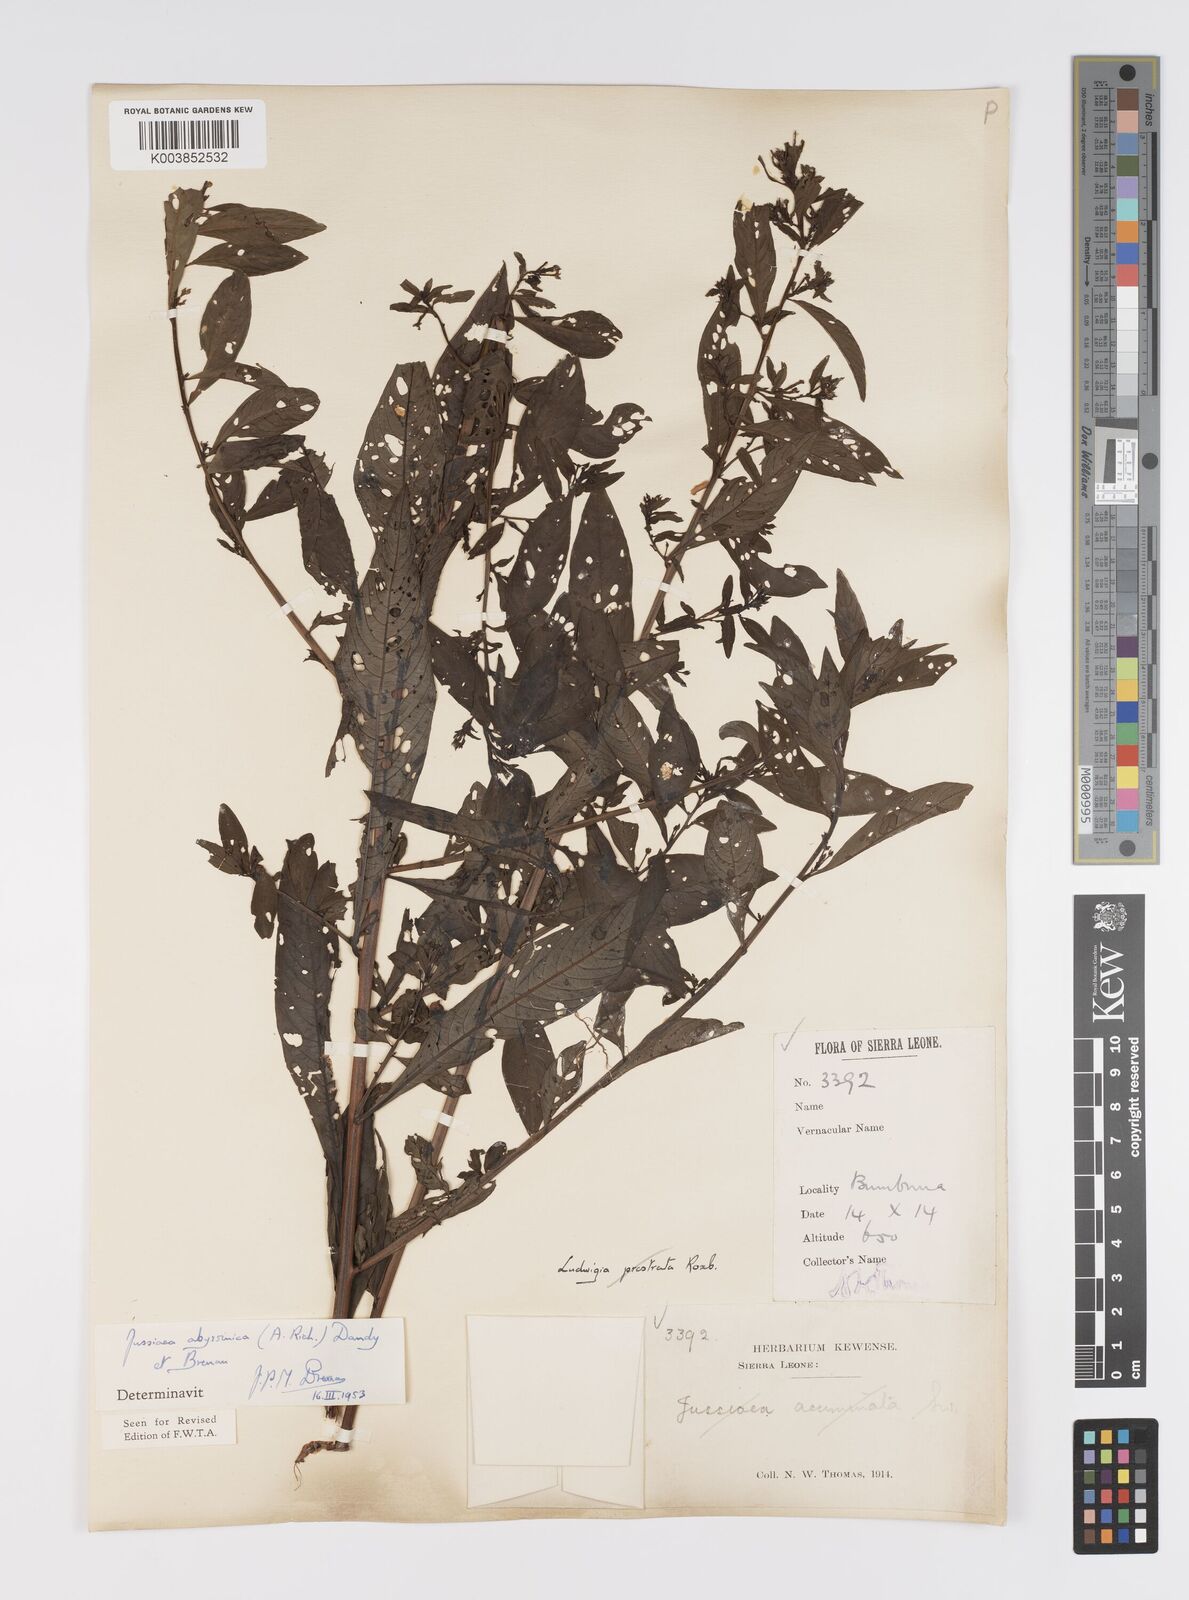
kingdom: Plantae
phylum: Tracheophyta
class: Magnoliopsida
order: Myrtales
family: Onagraceae
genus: Ludwigia
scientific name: Ludwigia abyssinica
